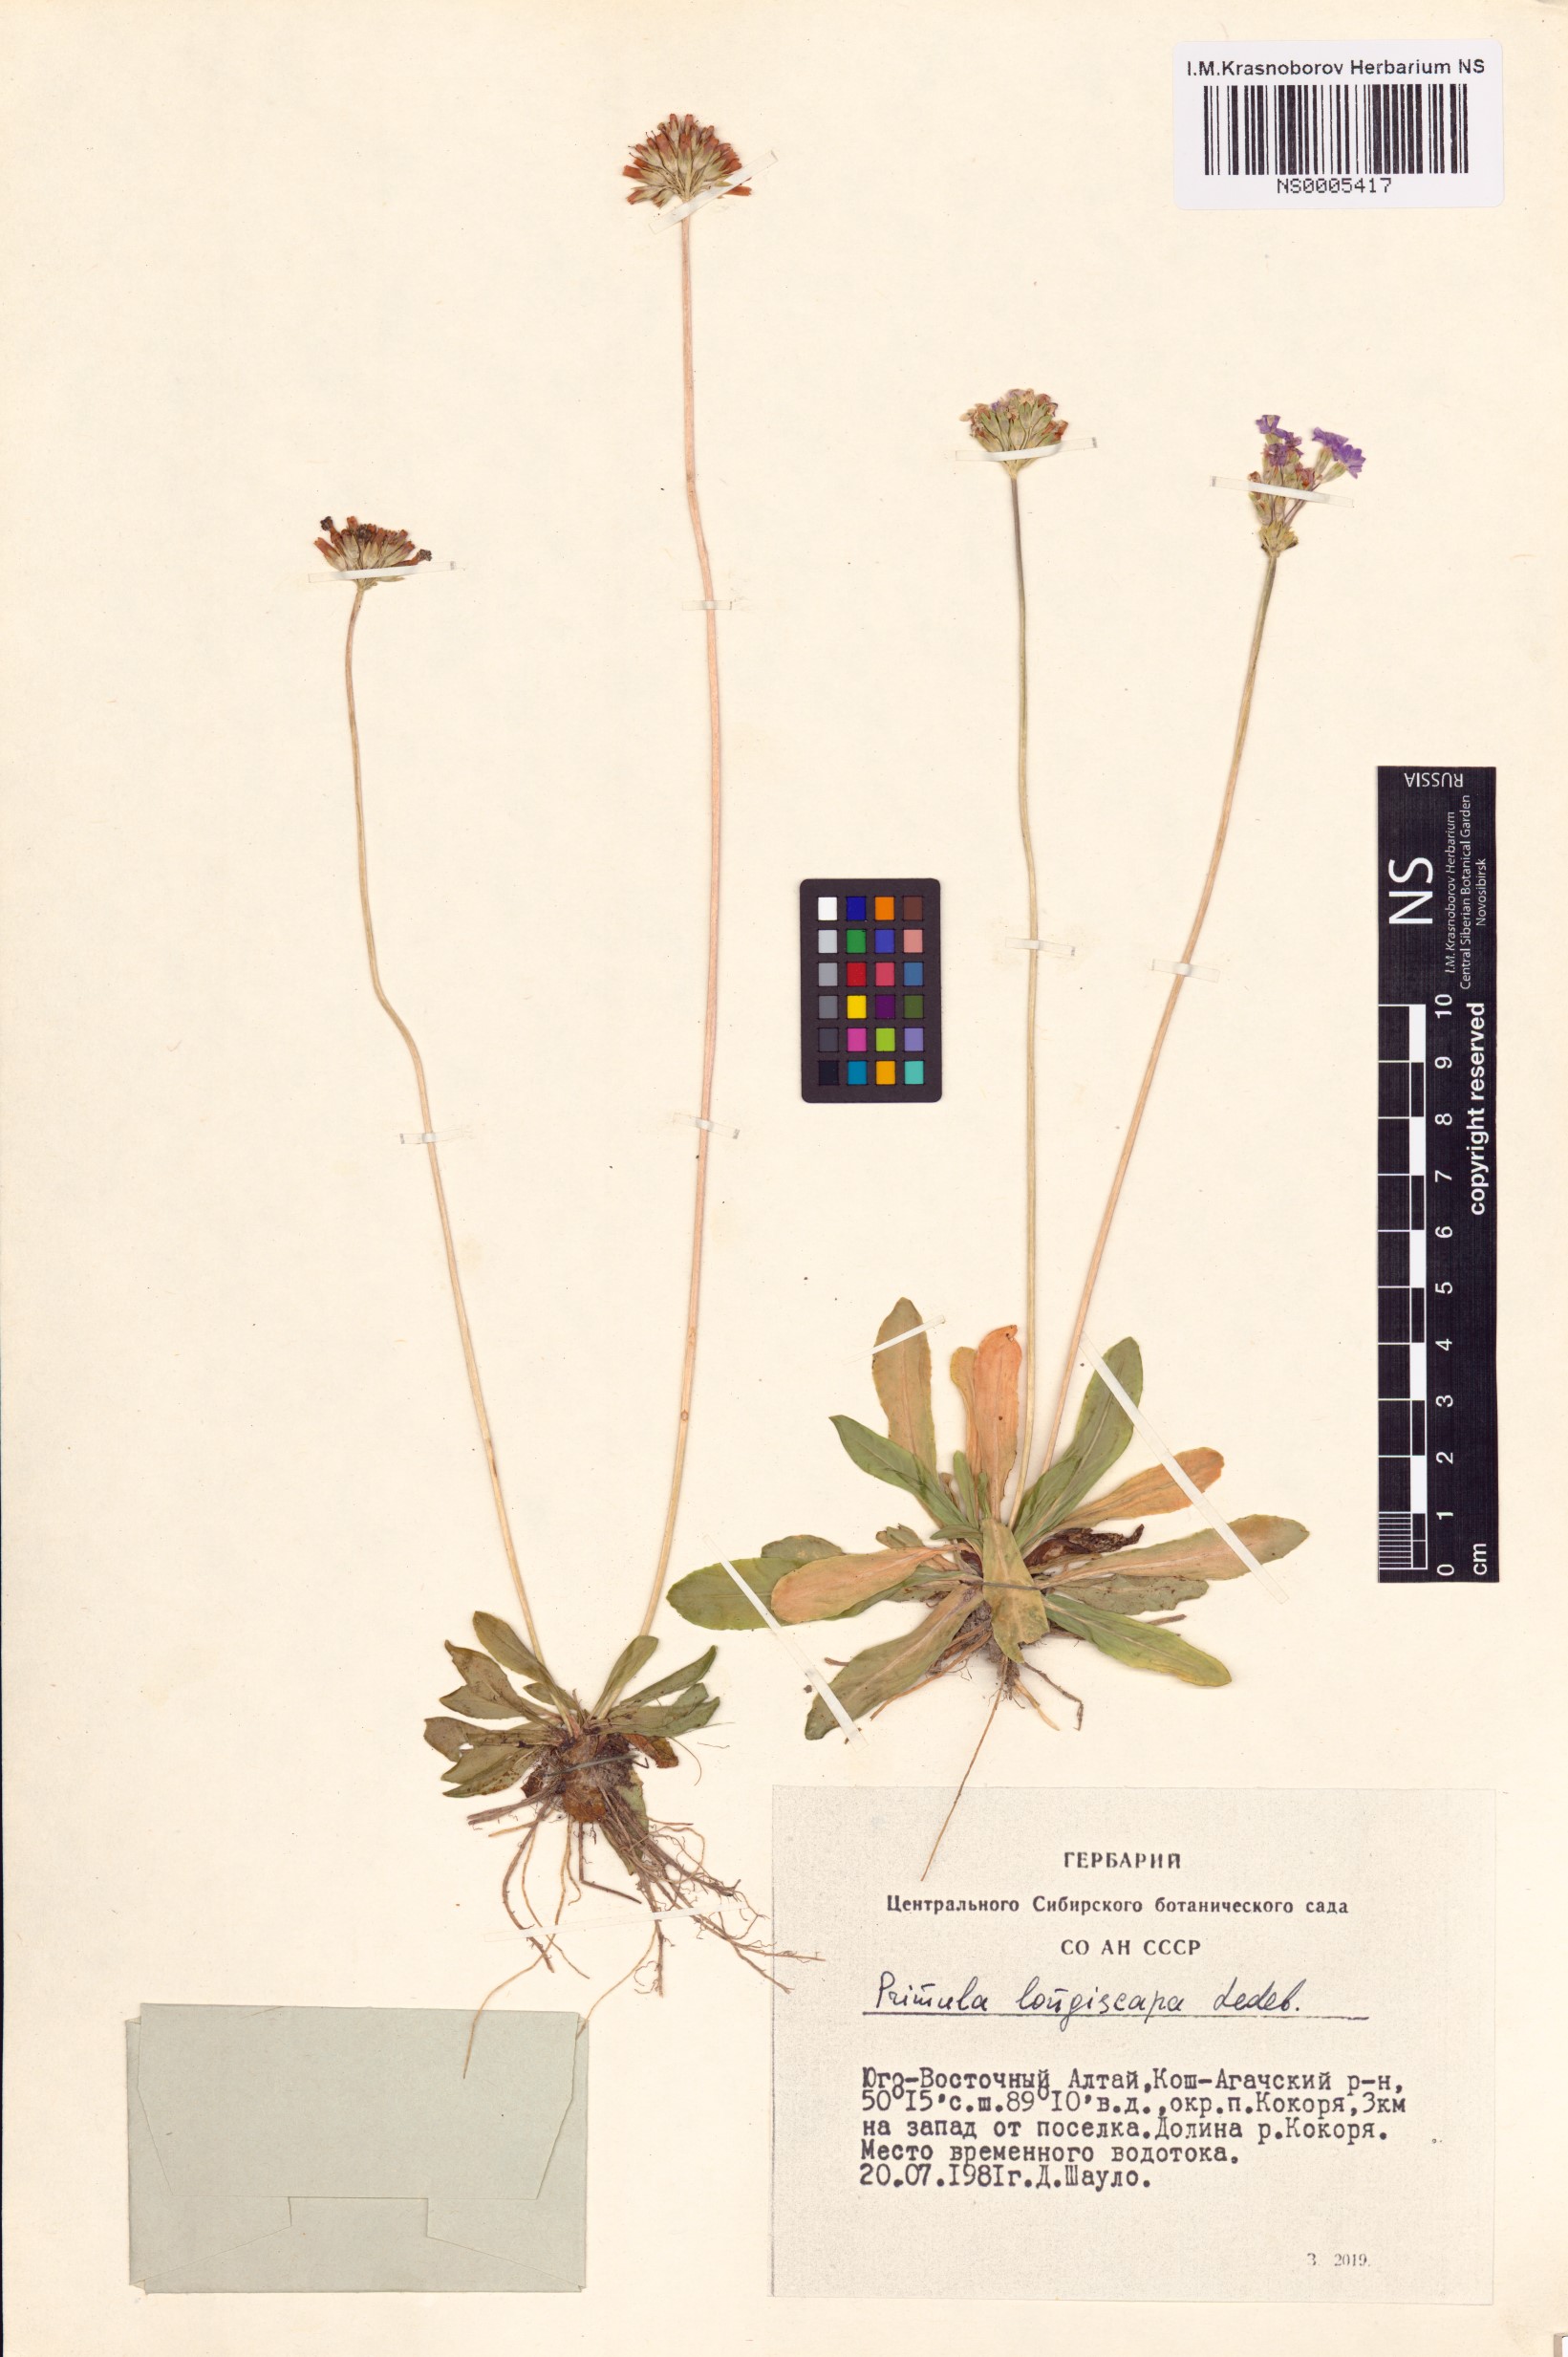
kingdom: Plantae
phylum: Tracheophyta
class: Magnoliopsida
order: Ericales
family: Primulaceae
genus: Primula
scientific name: Primula longiscapa
